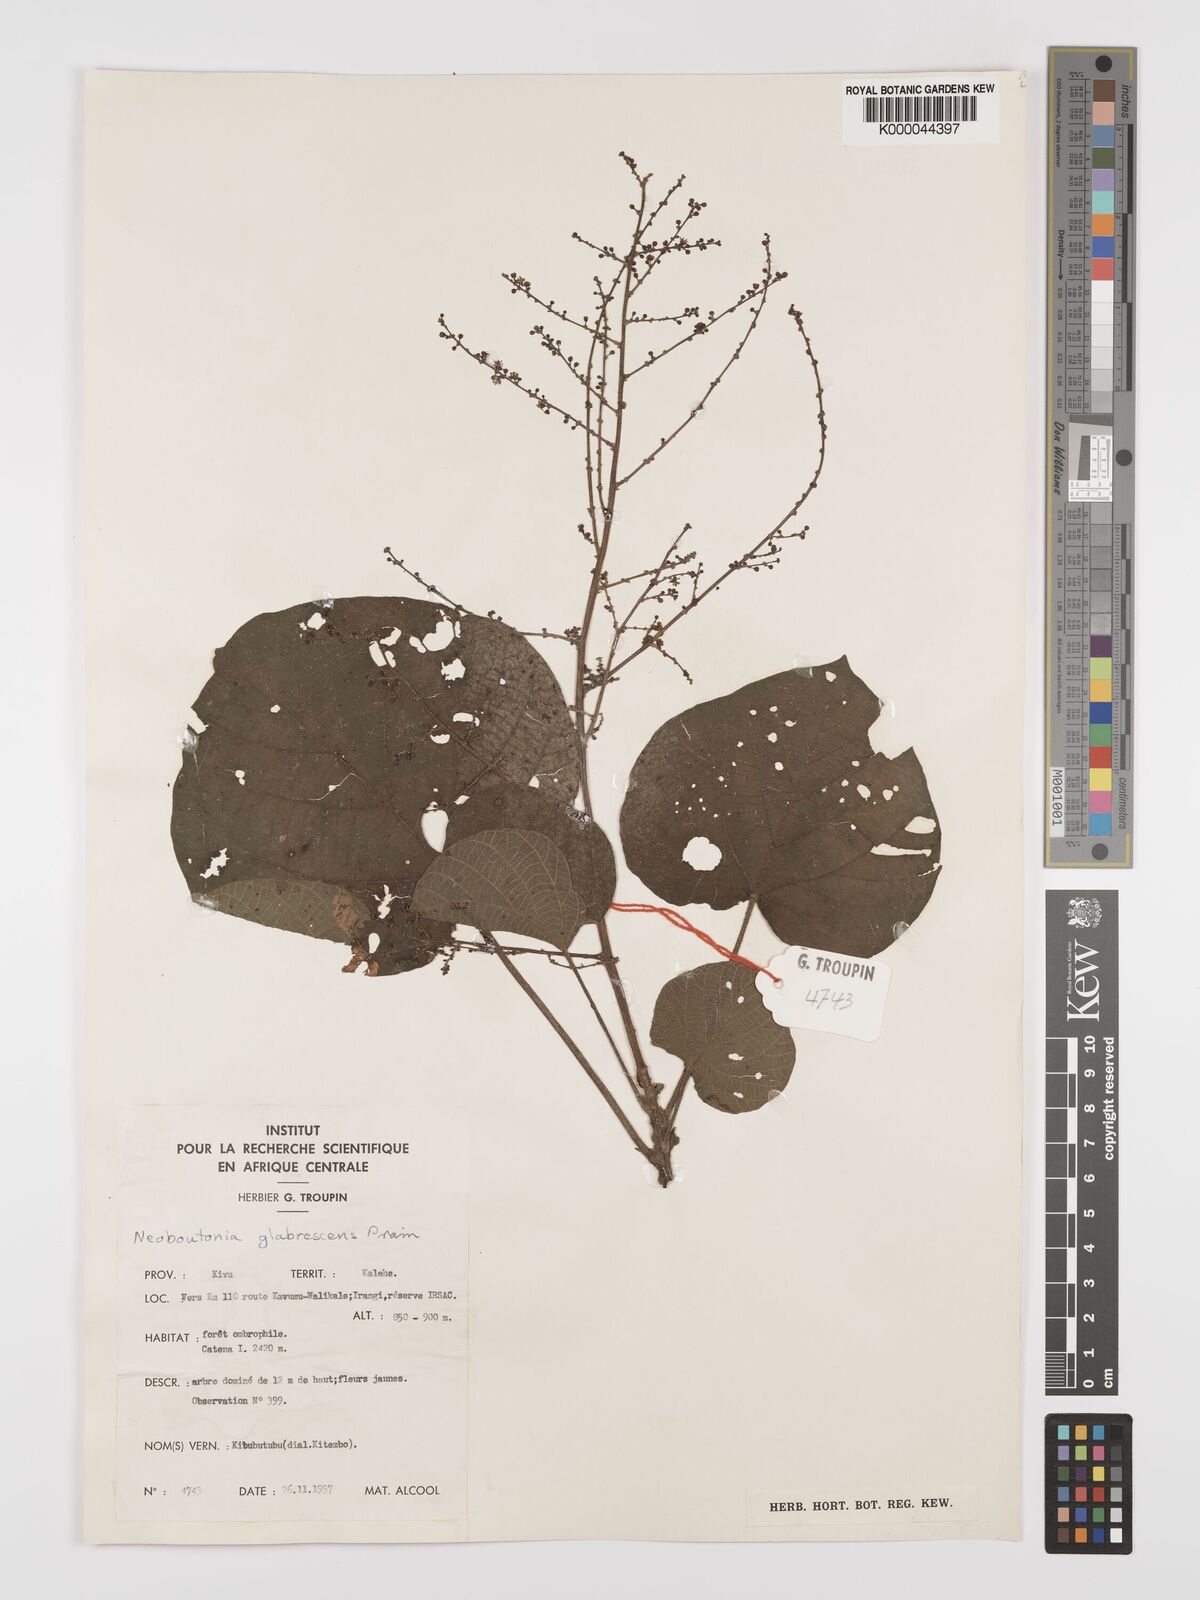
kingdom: Plantae
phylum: Tracheophyta
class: Magnoliopsida
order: Malpighiales
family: Euphorbiaceae
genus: Neoboutonia
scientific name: Neoboutonia mannii
